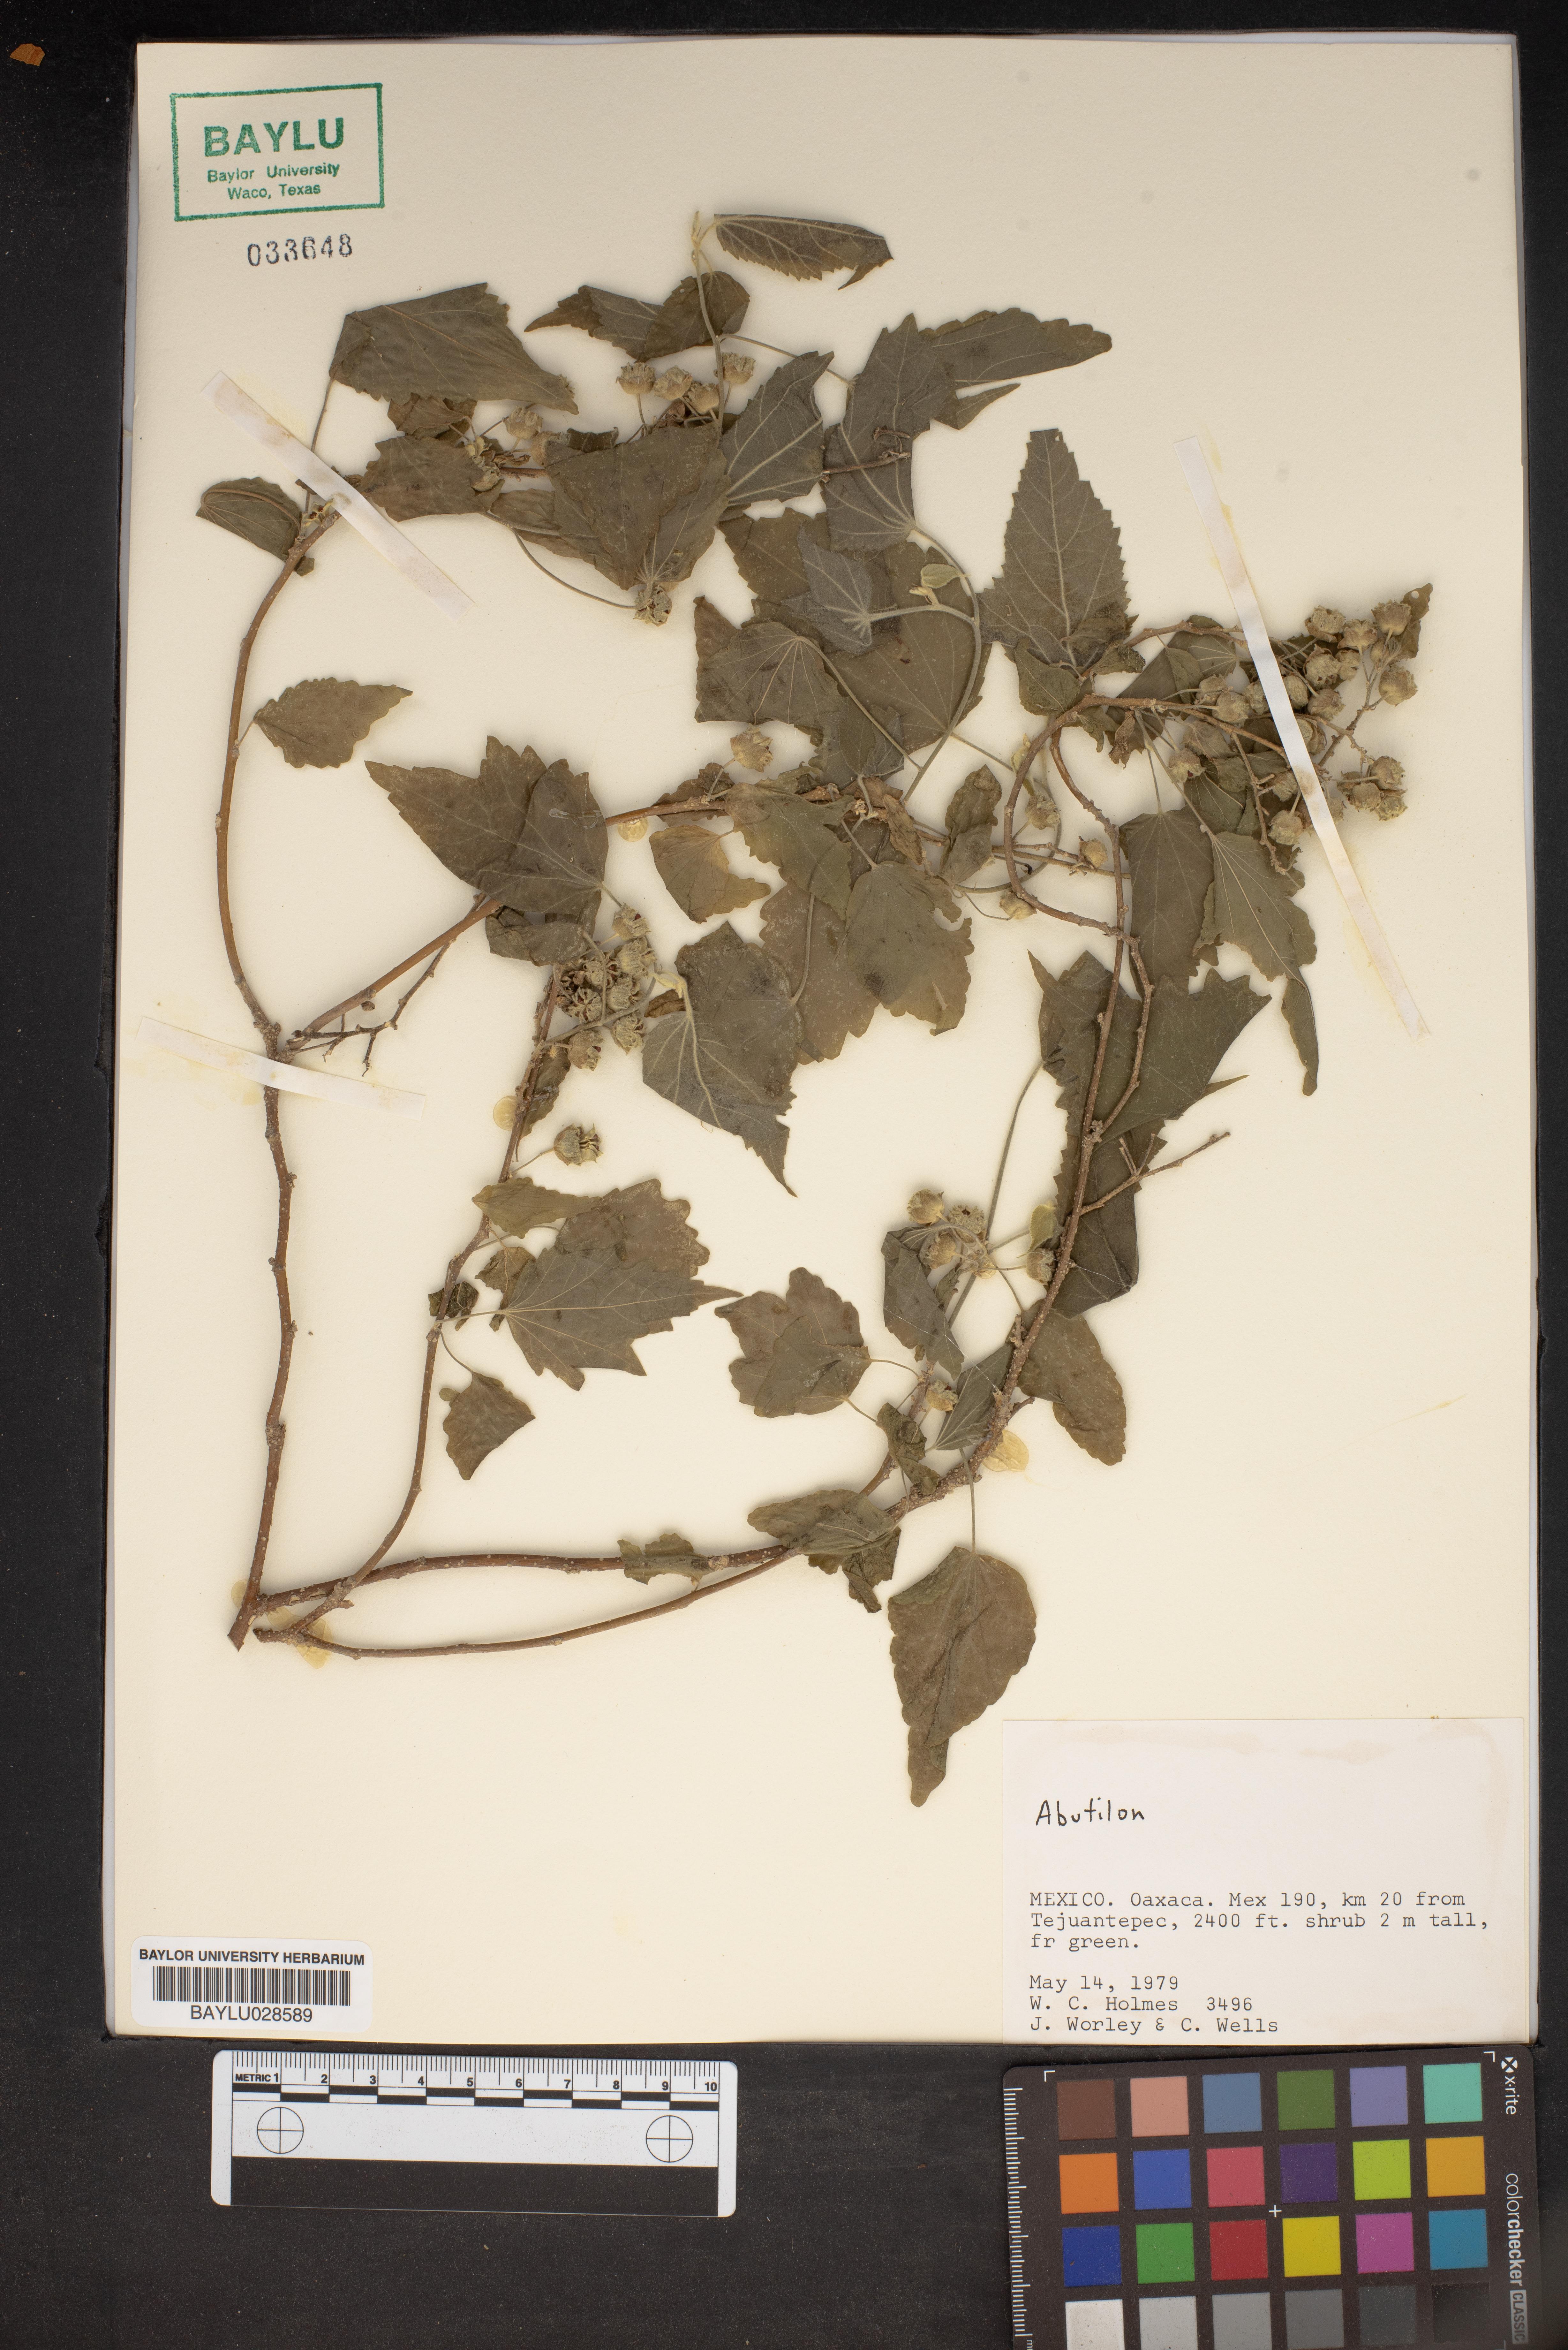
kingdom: Plantae
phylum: Tracheophyta
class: Magnoliopsida
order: Malvales
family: Malvaceae
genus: Abutilon
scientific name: Abutilon
